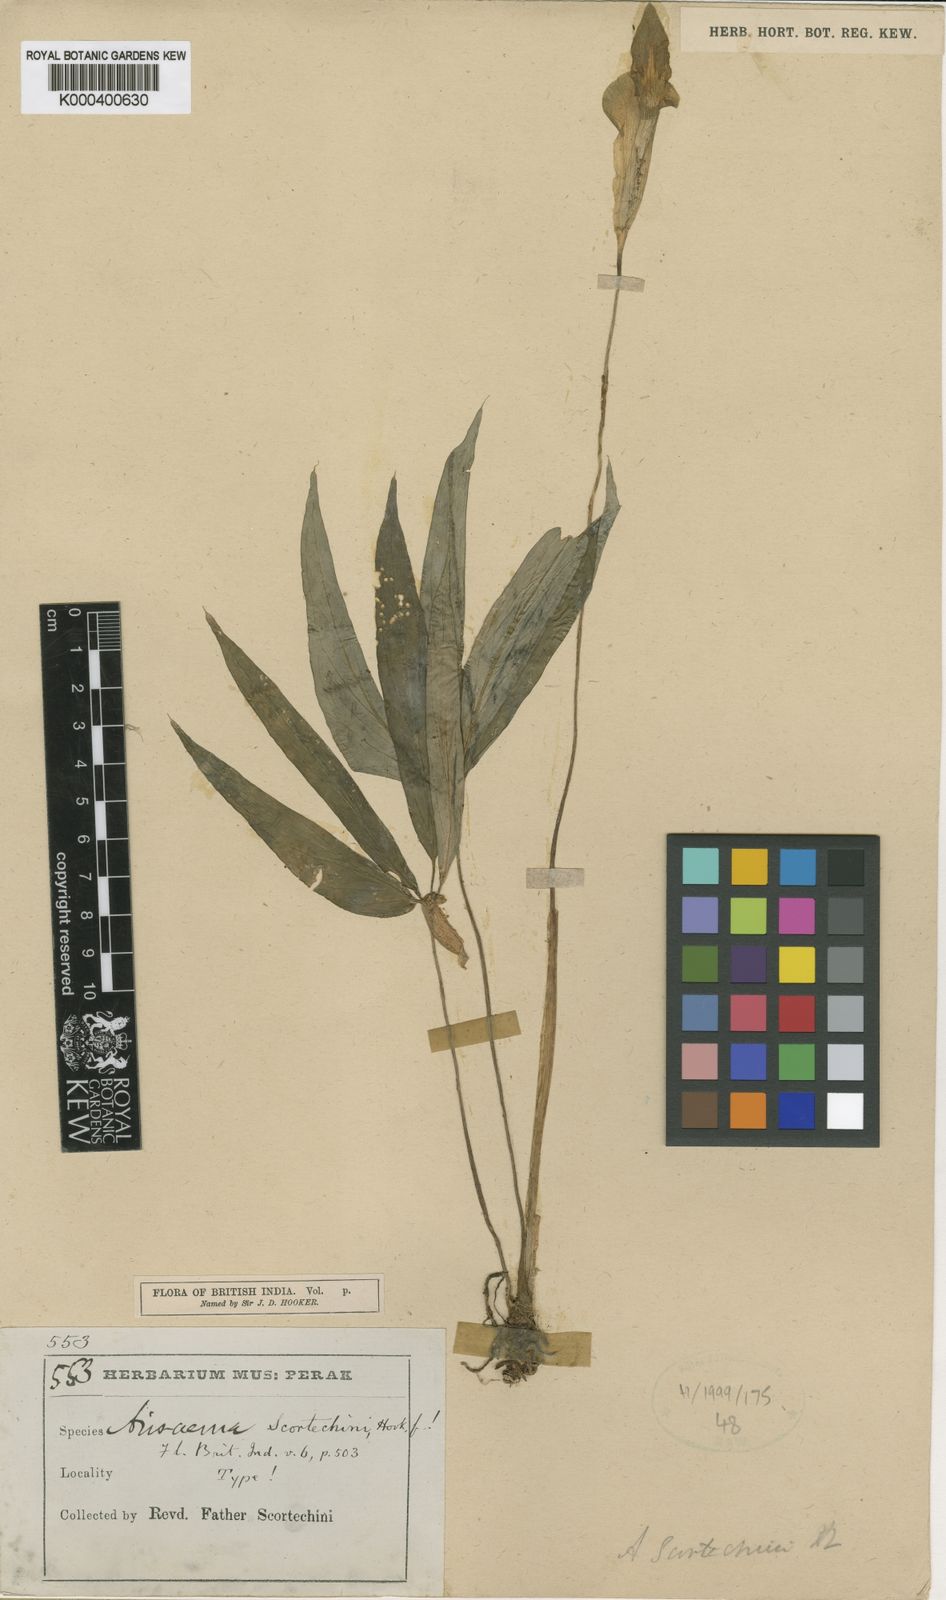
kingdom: Plantae
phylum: Tracheophyta
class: Liliopsida
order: Alismatales
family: Araceae
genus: Arisaema
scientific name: Arisaema scortechinii
